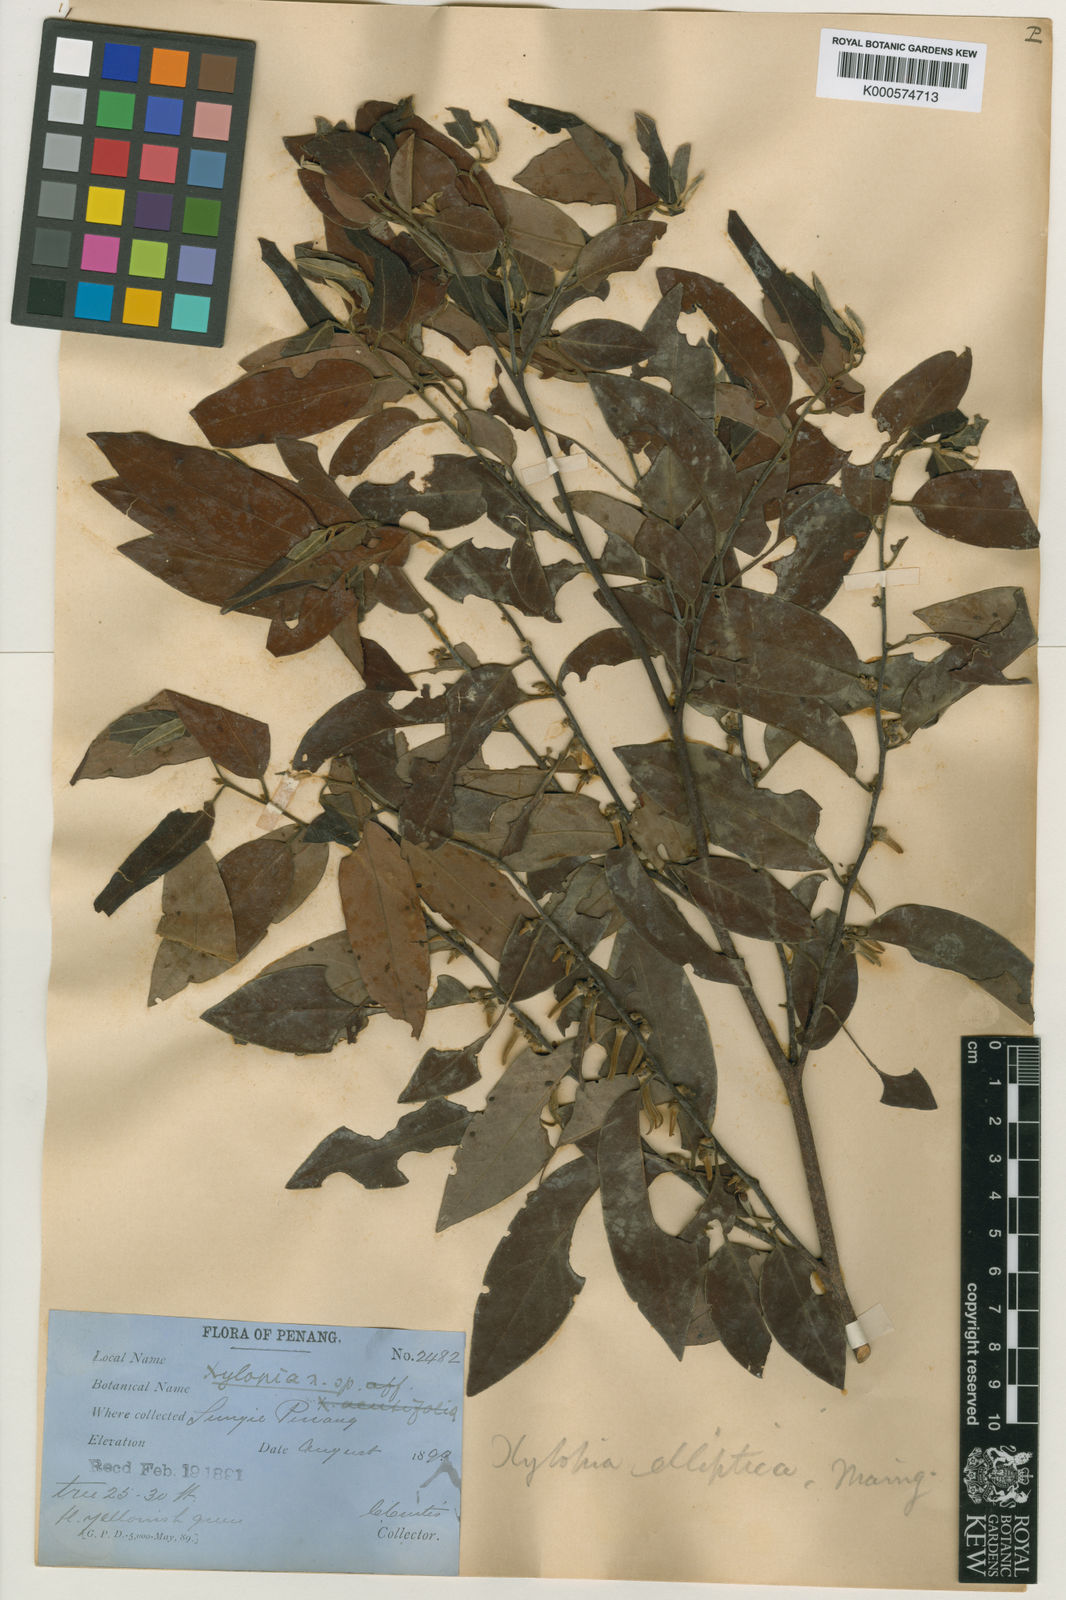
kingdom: Plantae
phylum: Tracheophyta
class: Magnoliopsida
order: Magnoliales
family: Annonaceae
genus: Xylopia
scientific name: Xylopia
